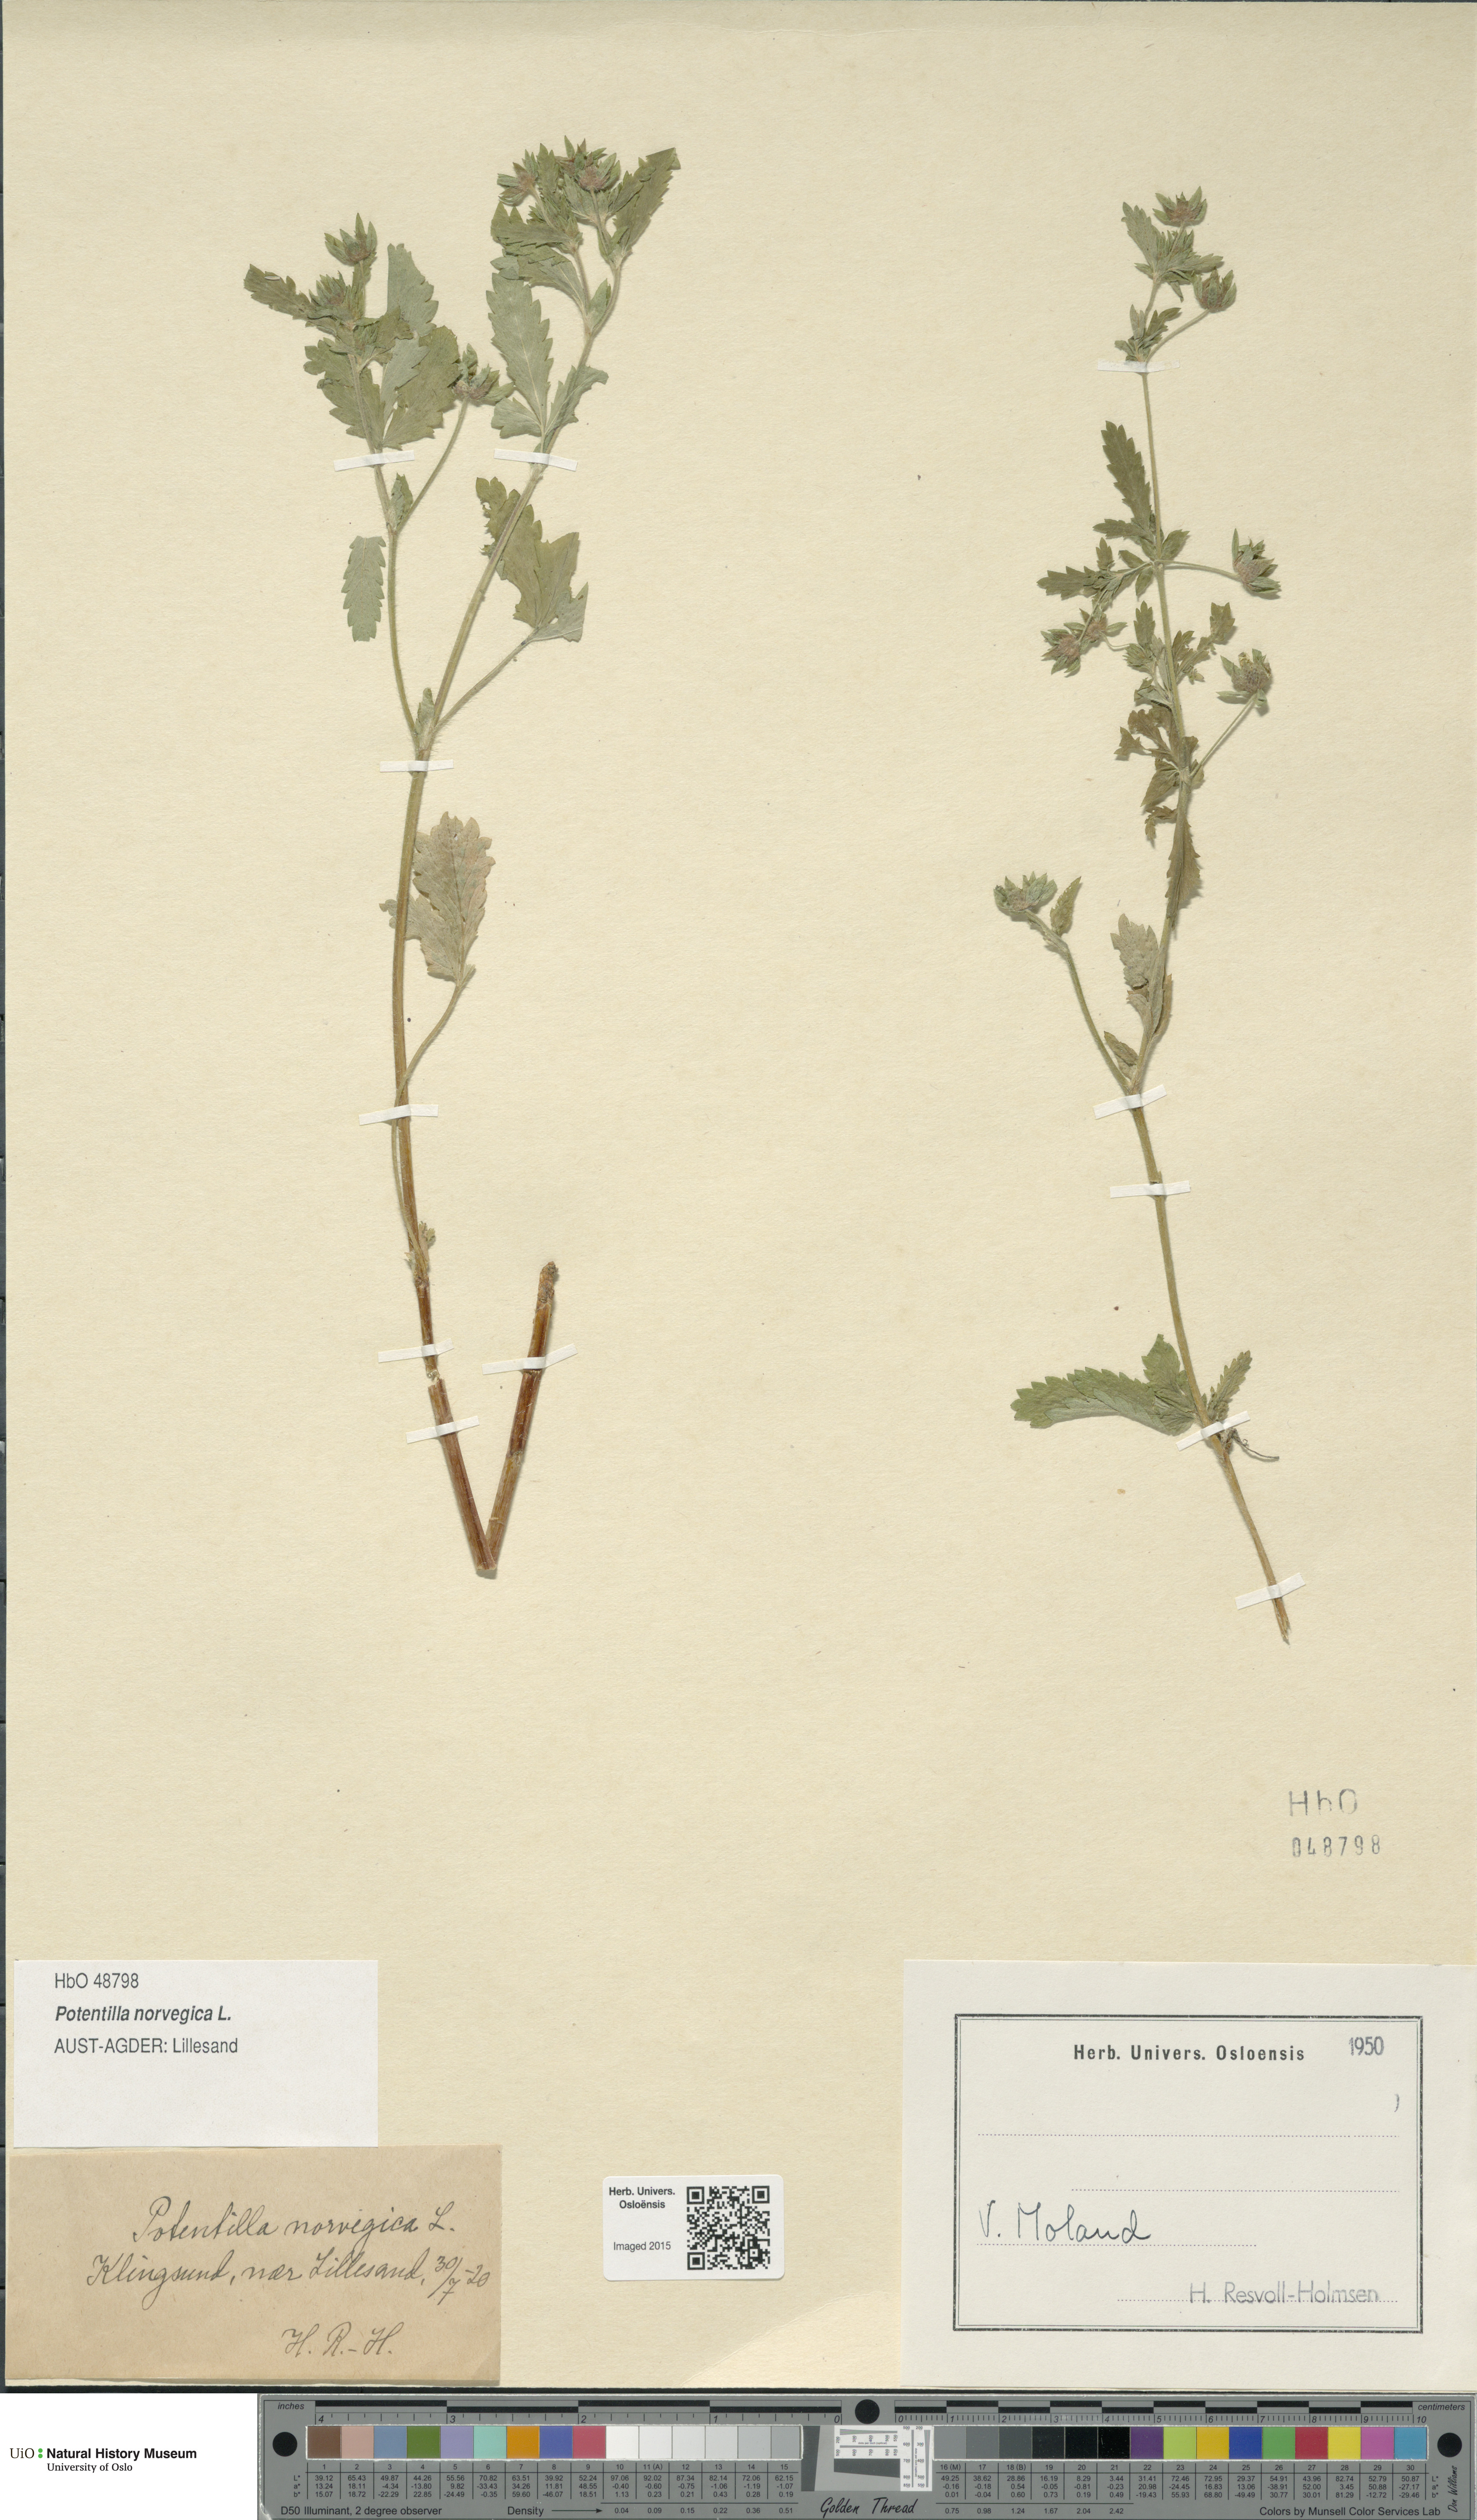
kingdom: Plantae
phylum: Tracheophyta
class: Magnoliopsida
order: Rosales
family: Rosaceae
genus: Potentilla
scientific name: Potentilla norvegica
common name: Ternate-leaved cinquefoil
